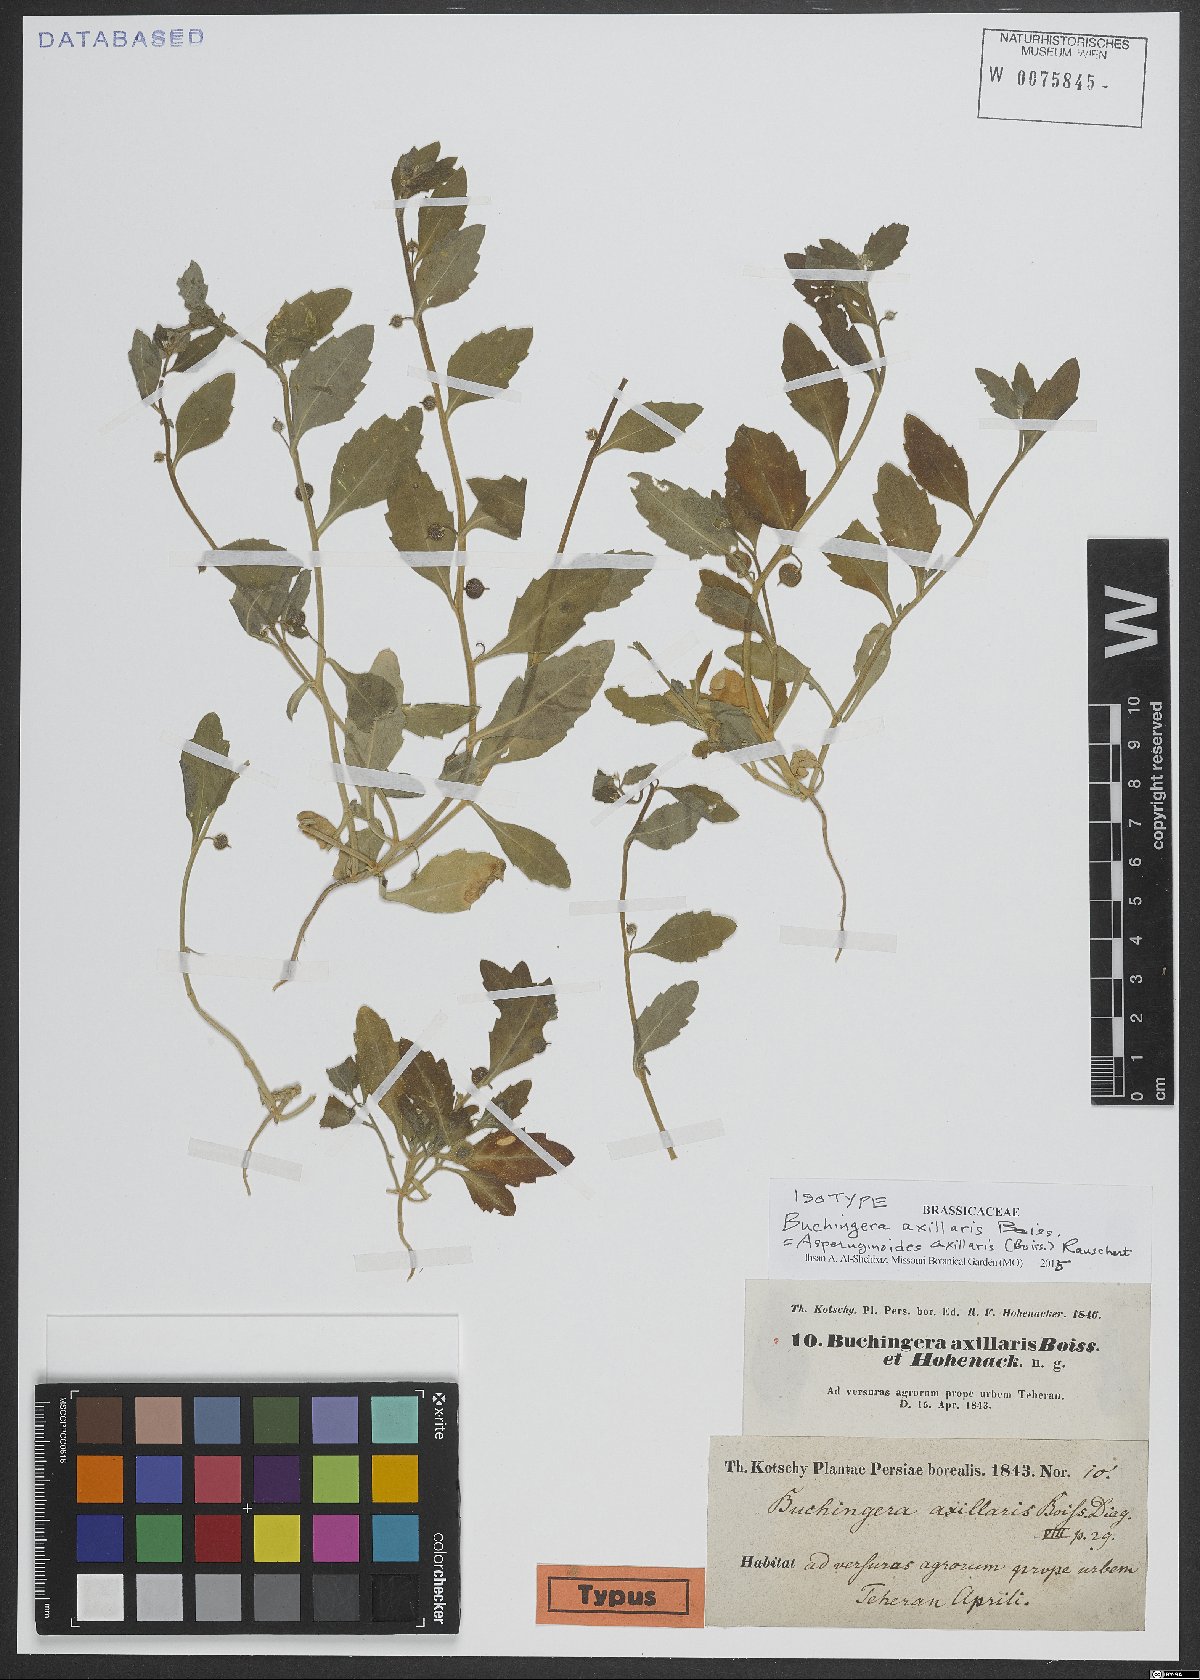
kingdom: Plantae
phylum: Tracheophyta
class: Magnoliopsida
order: Brassicales
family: Brassicaceae
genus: Asperuginoides
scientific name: Asperuginoides axillaris
